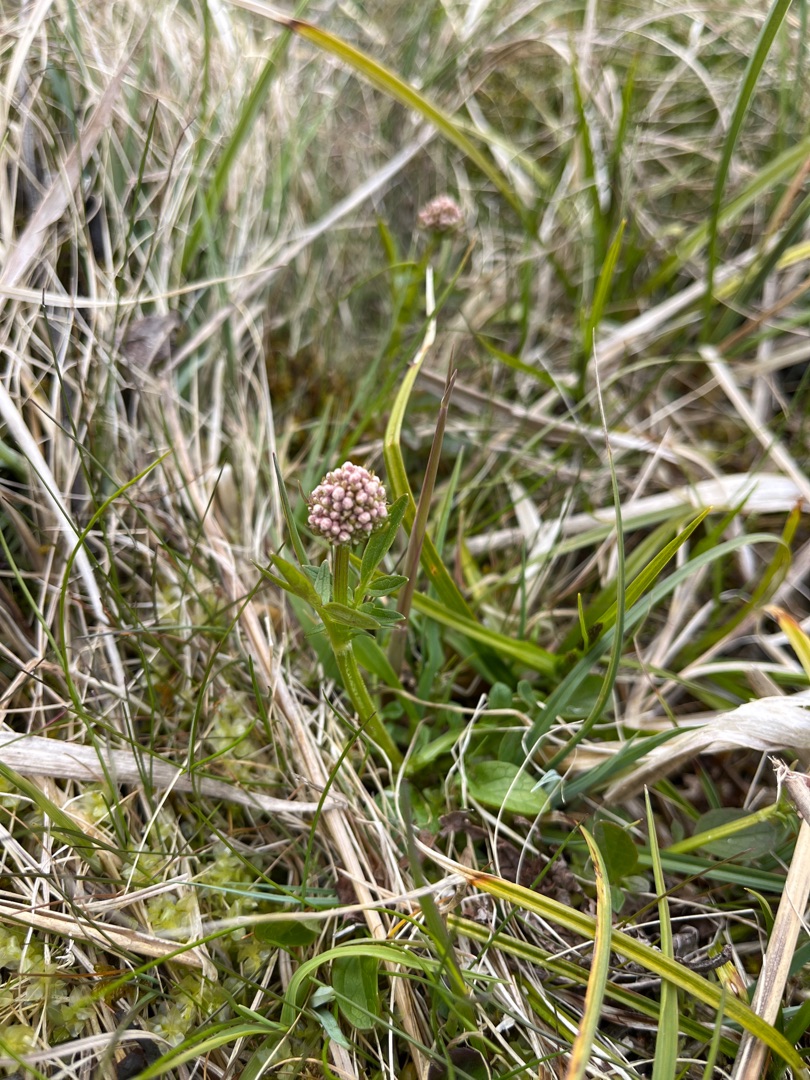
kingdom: Plantae
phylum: Tracheophyta
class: Magnoliopsida
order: Dipsacales
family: Caprifoliaceae
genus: Valeriana
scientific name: Valeriana dioica
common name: Tvebo baldrian
